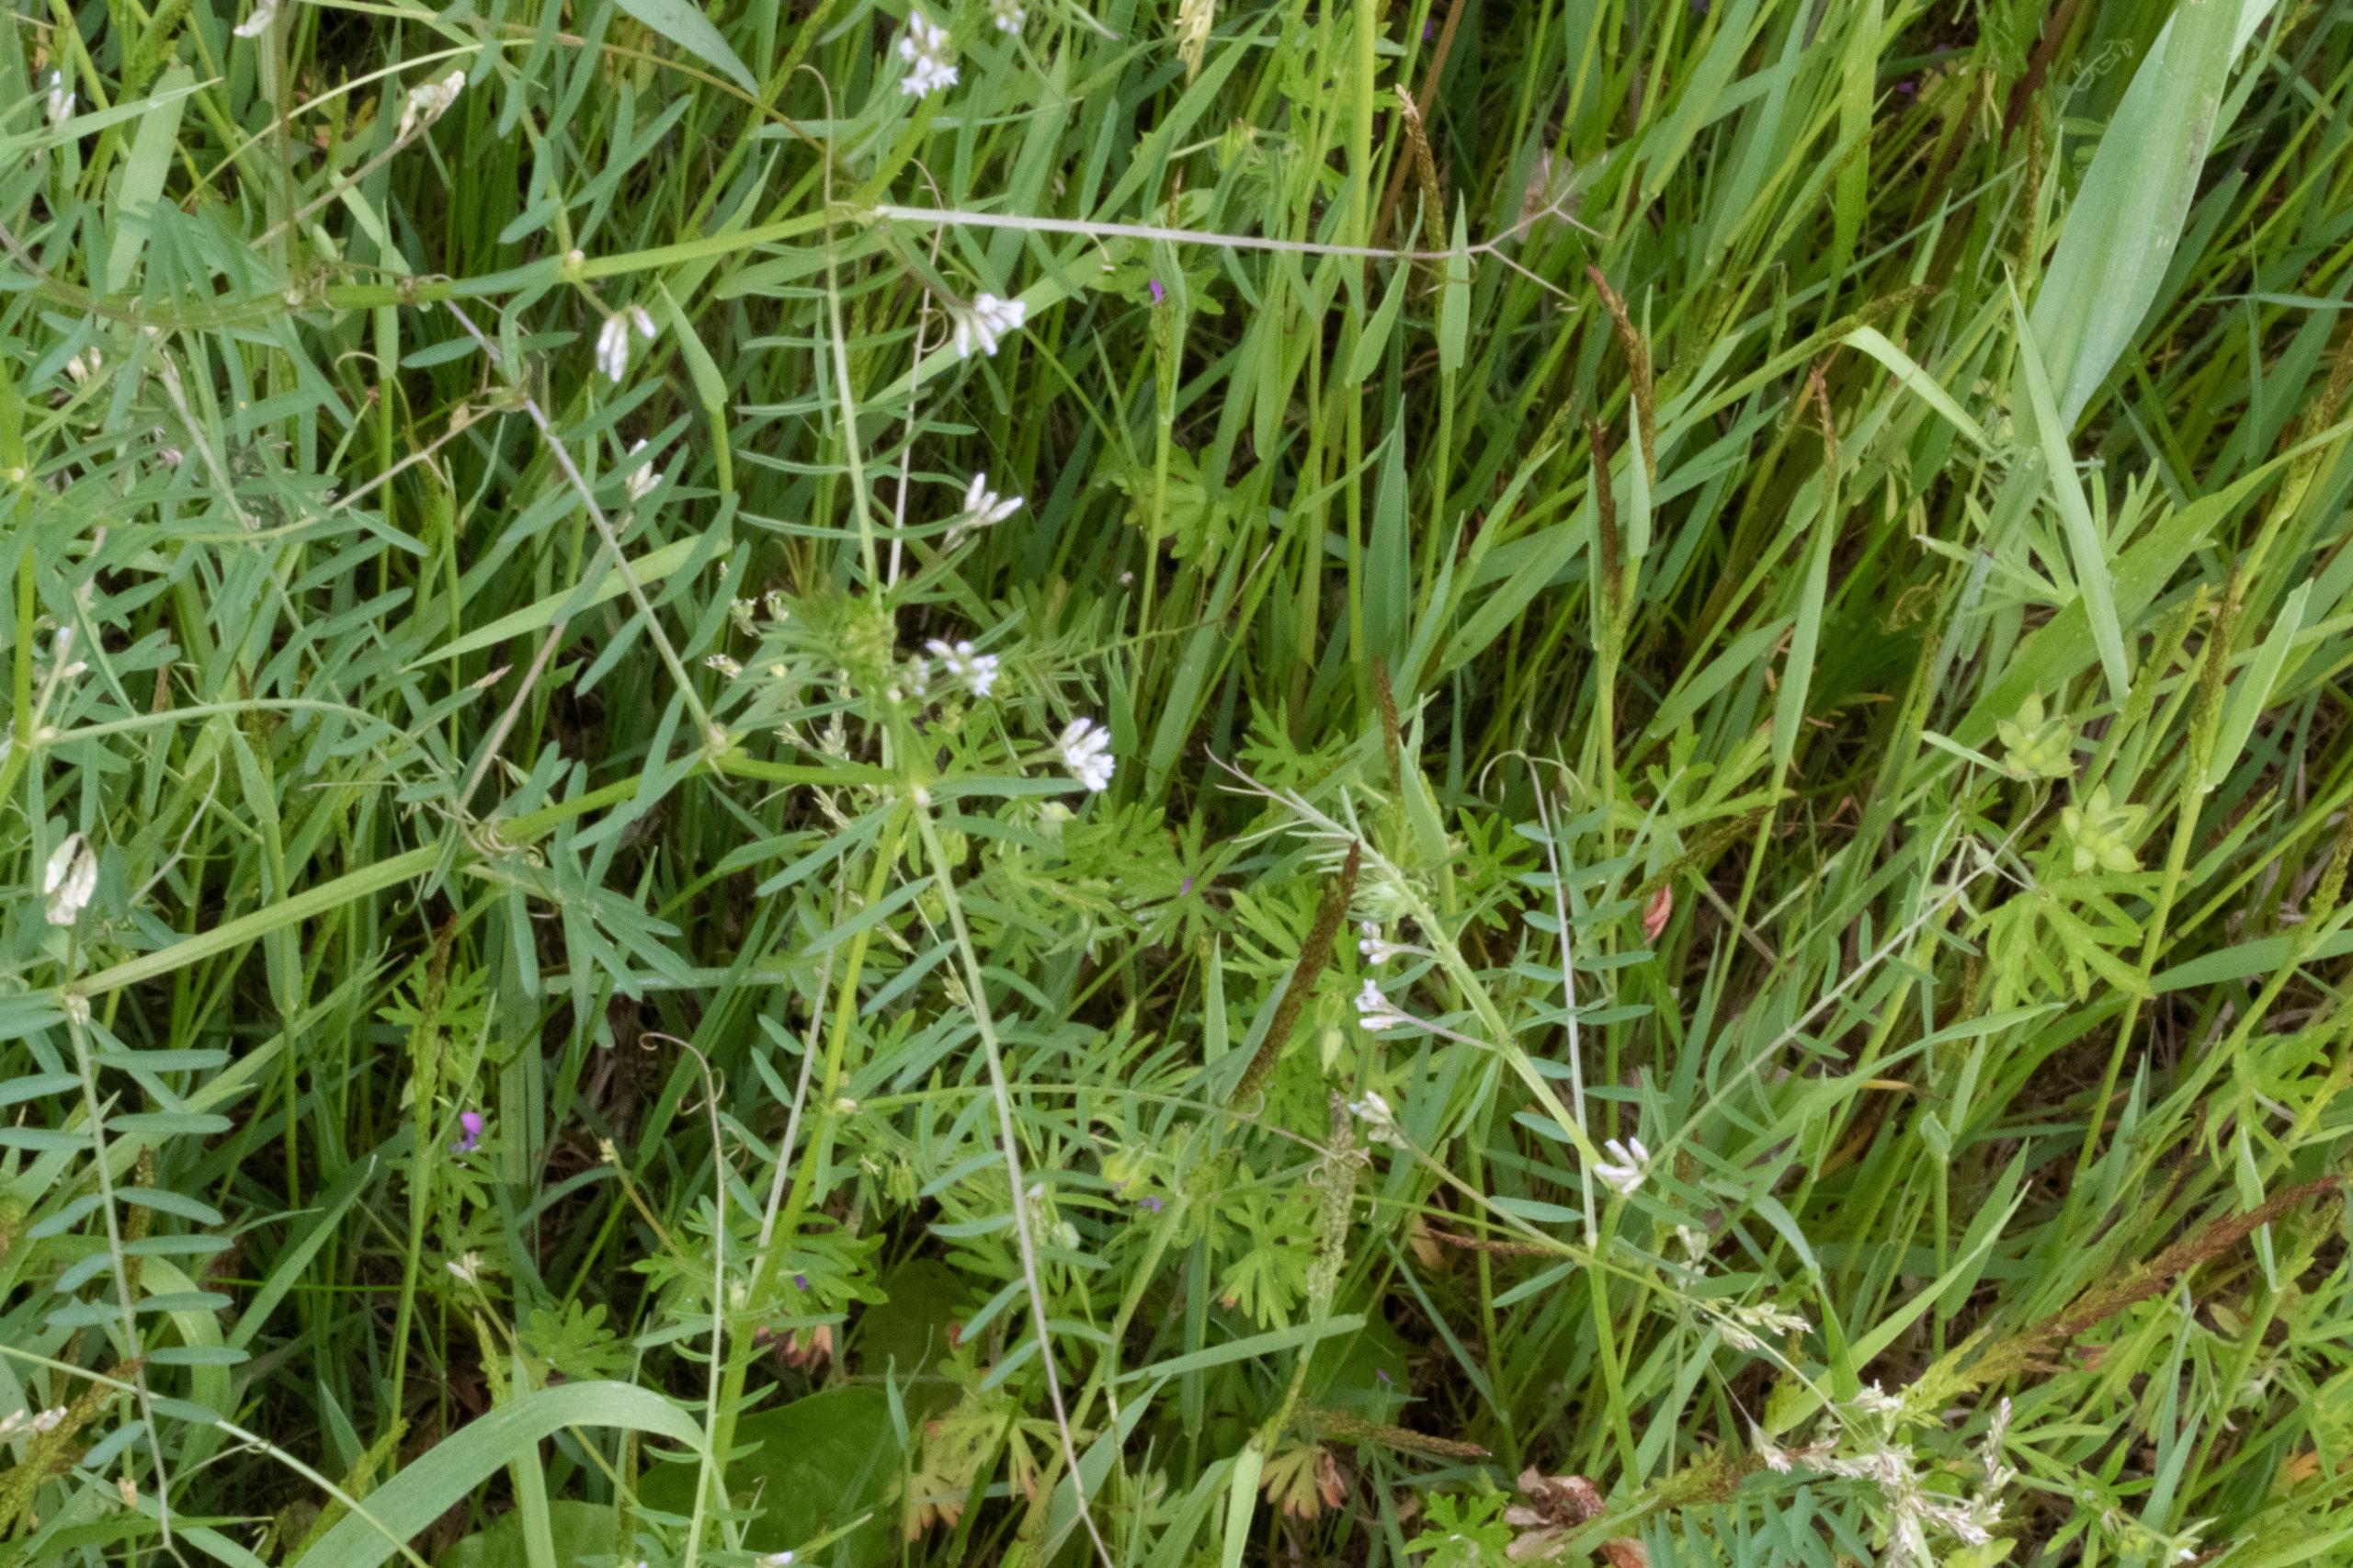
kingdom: Plantae
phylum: Tracheophyta
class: Magnoliopsida
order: Fabales
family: Fabaceae
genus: Vicia
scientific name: Vicia hirsuta
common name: Tofrøet vikke
